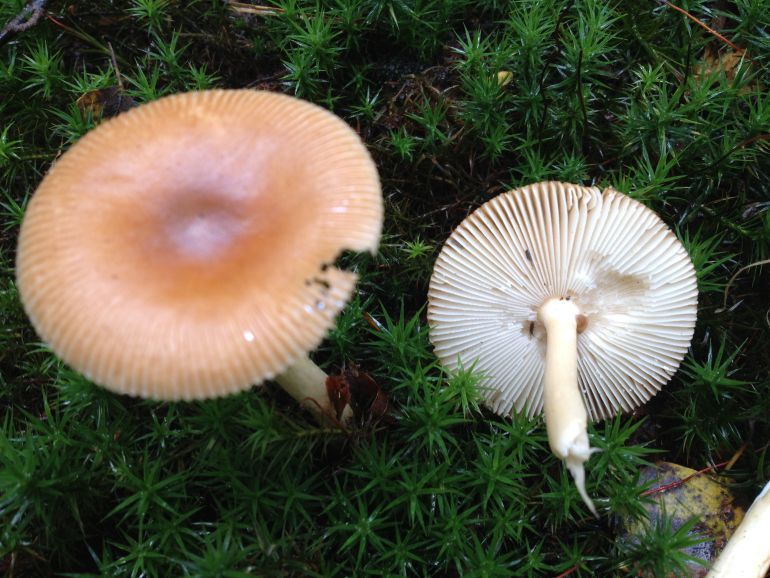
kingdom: Fungi
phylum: Basidiomycota
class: Agaricomycetes
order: Agaricales
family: Amanitaceae
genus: Amanita
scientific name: Amanita fulva
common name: brun kam-fluesvamp
